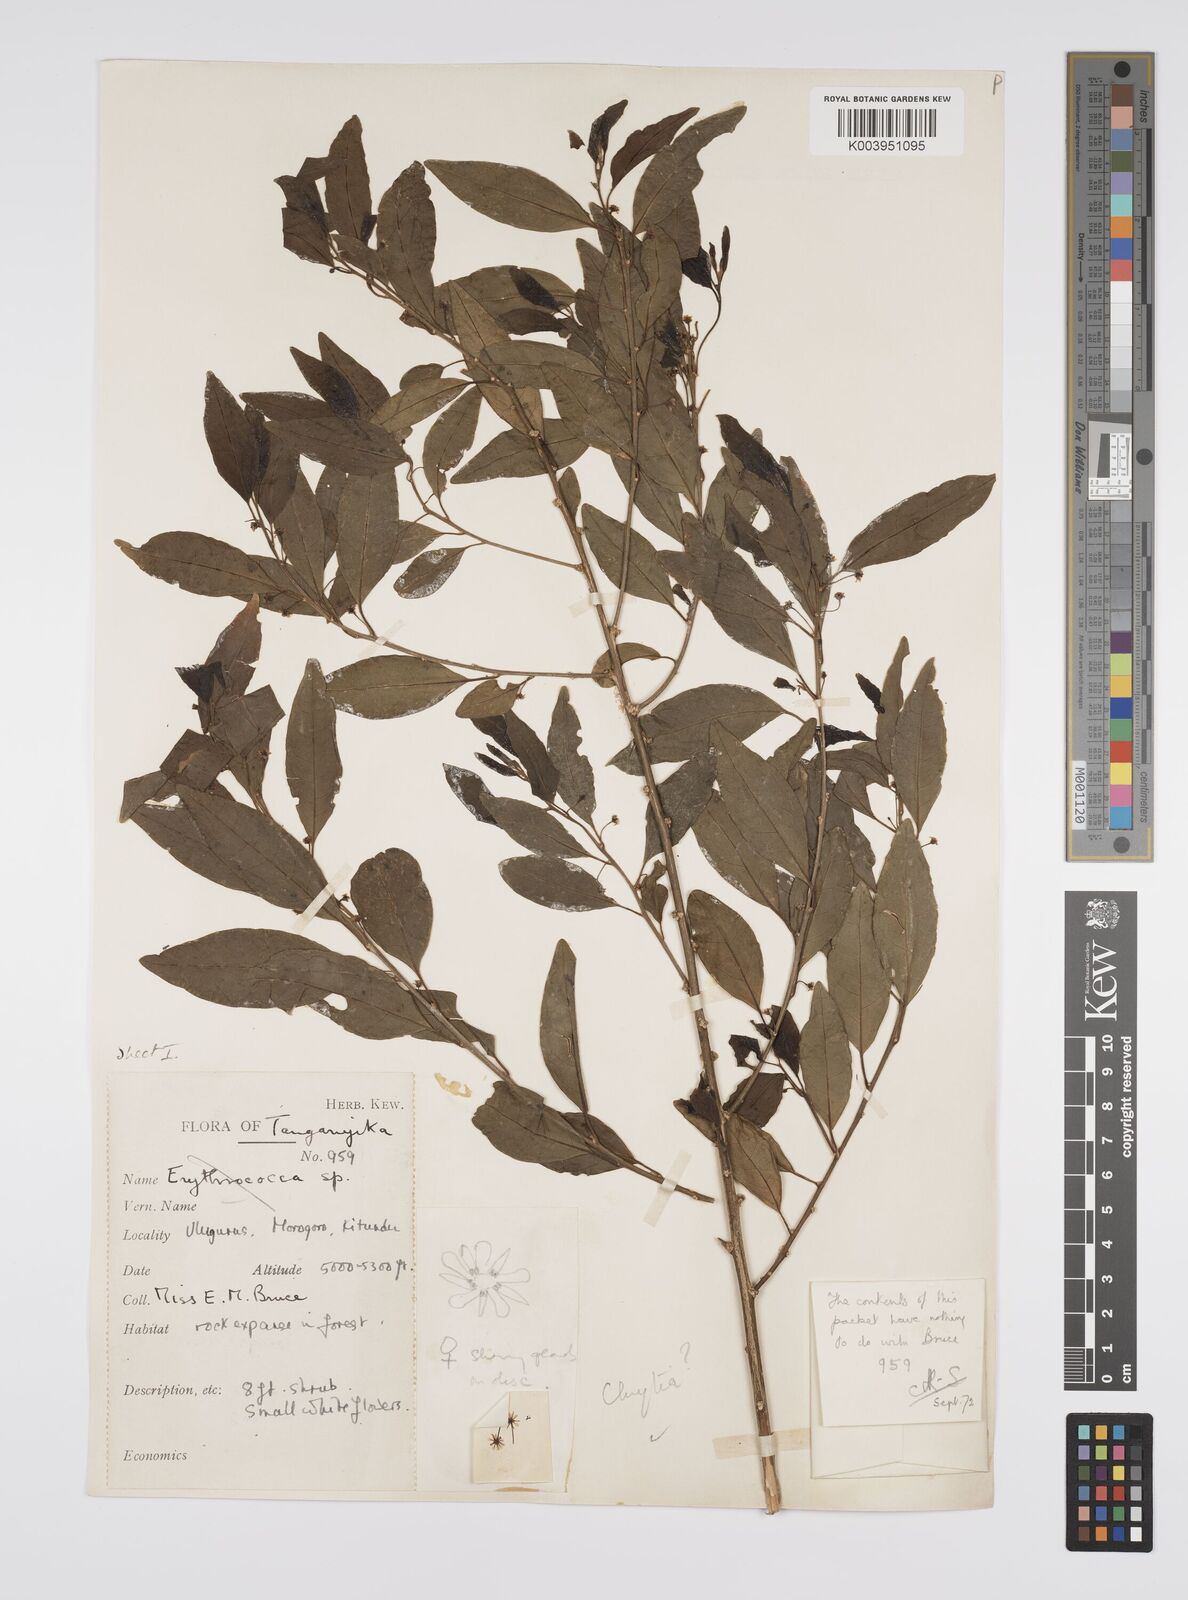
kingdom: Plantae
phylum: Tracheophyta
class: Magnoliopsida
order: Malpighiales
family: Peraceae
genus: Clutia
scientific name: Clutia
